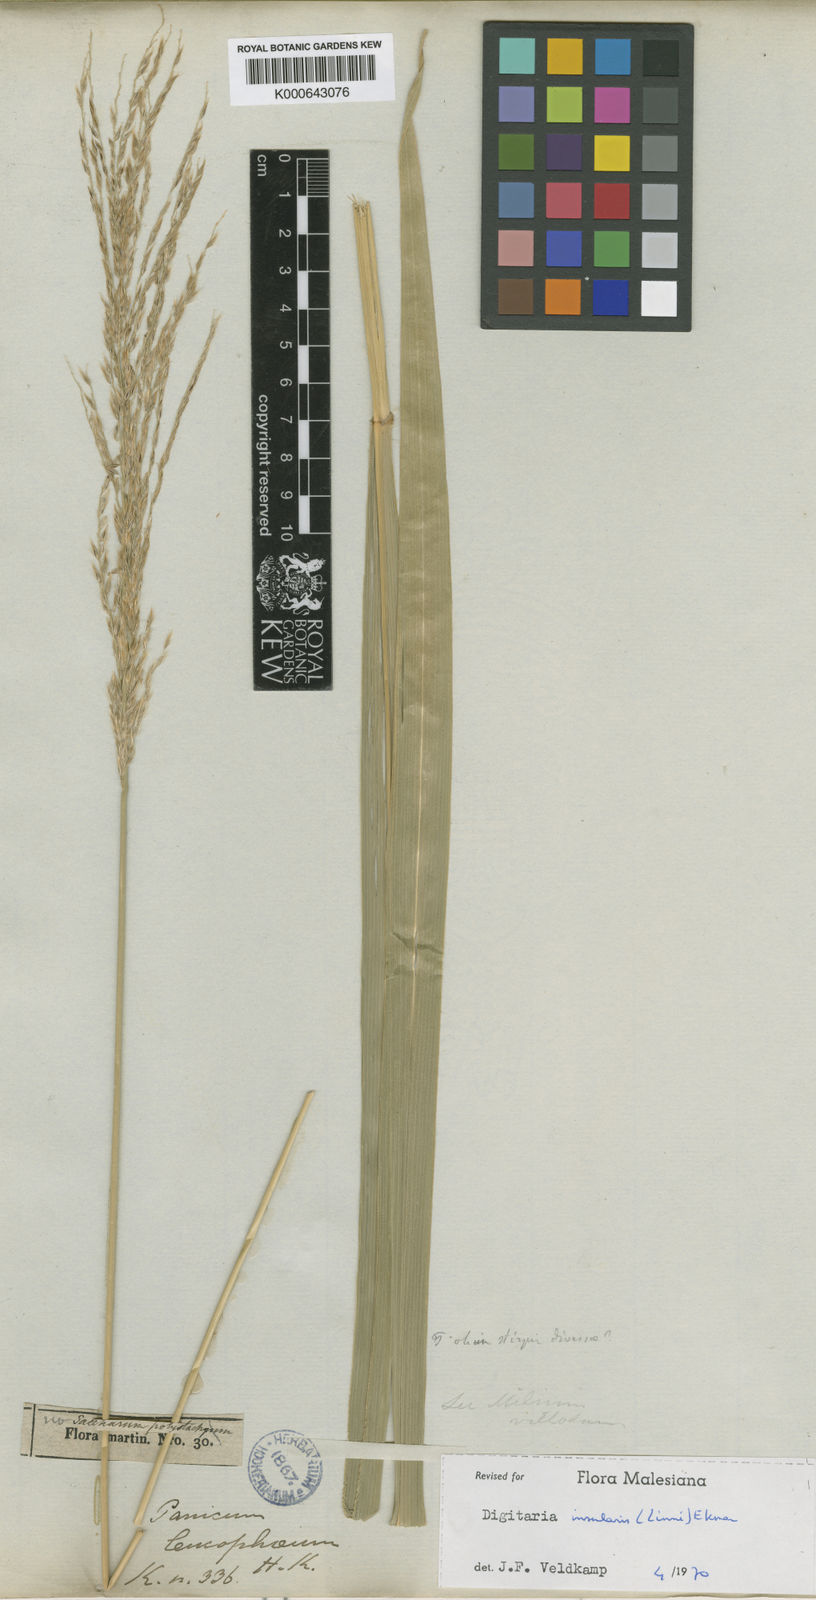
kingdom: Plantae
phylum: Tracheophyta
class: Liliopsida
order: Poales
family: Poaceae
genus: Digitaria
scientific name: Digitaria insularis
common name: Sourgrass
